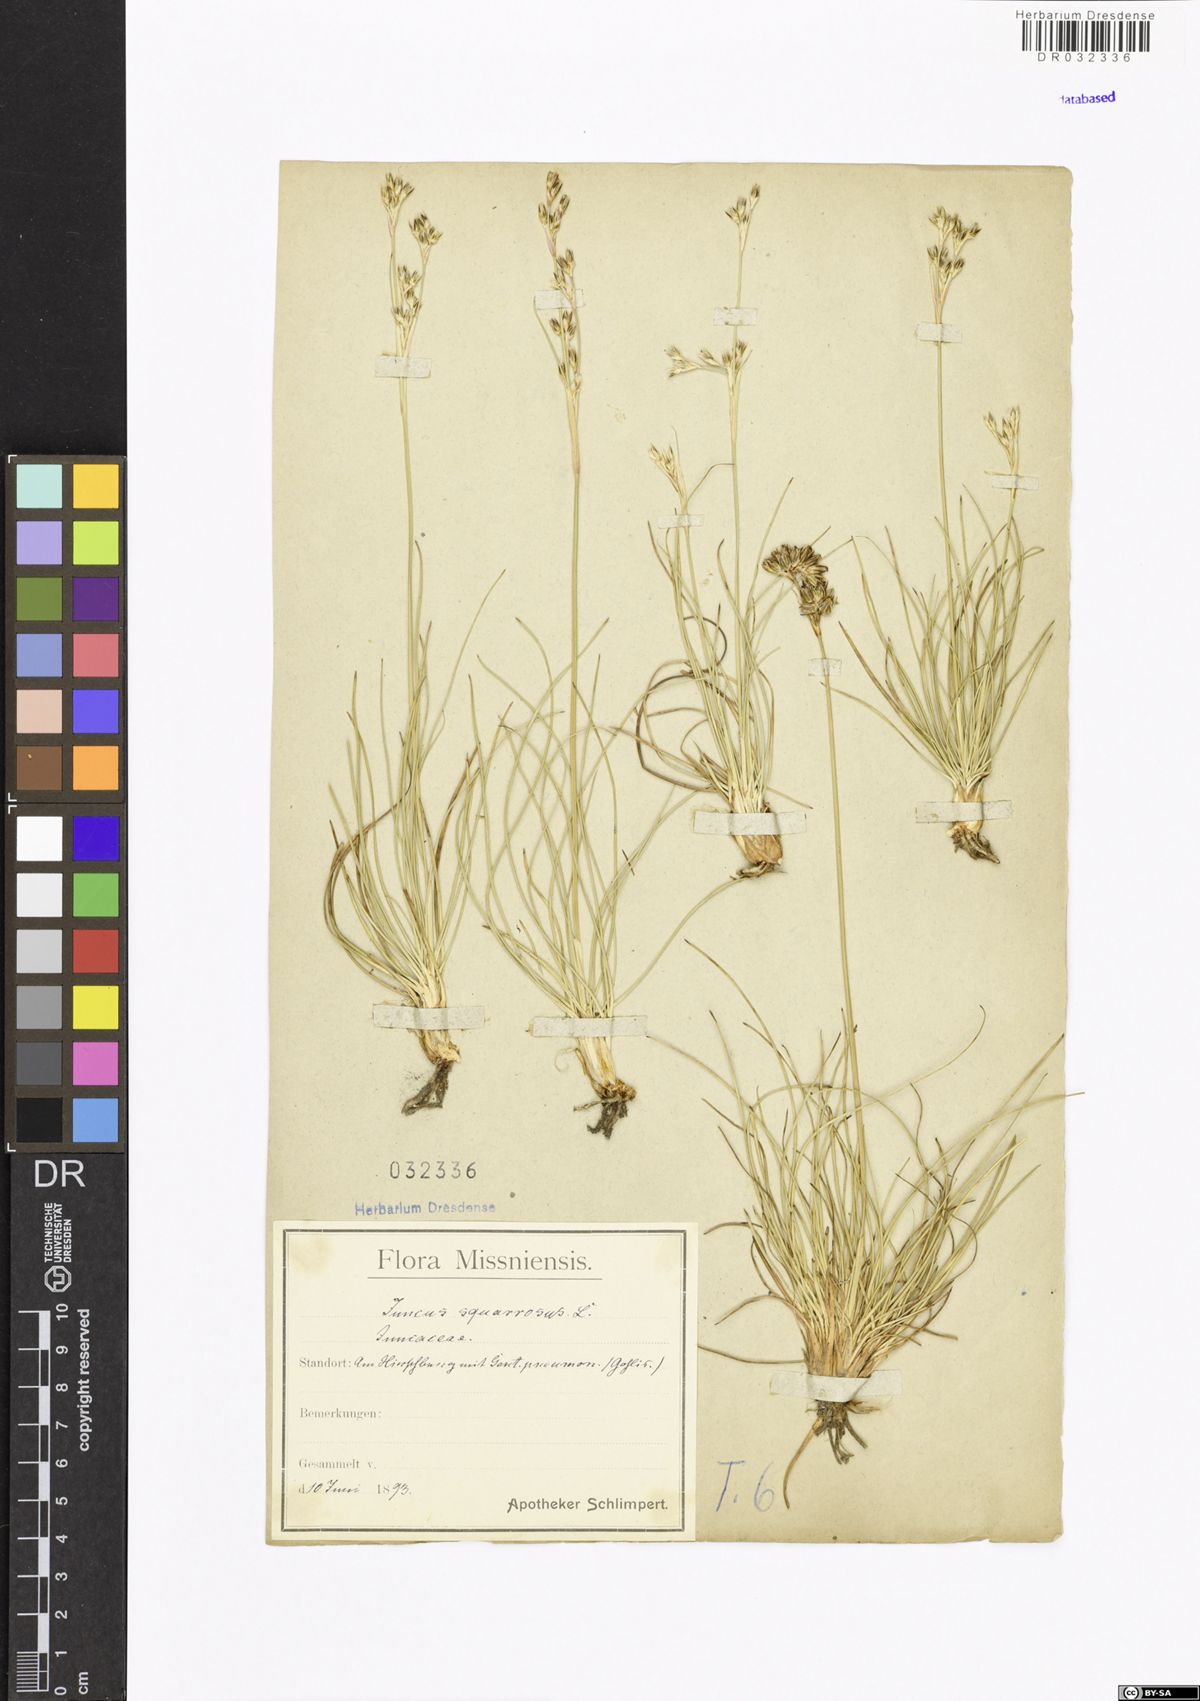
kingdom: Plantae
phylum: Tracheophyta
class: Liliopsida
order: Poales
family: Juncaceae
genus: Juncus
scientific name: Juncus squarrosus
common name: Heath rush
